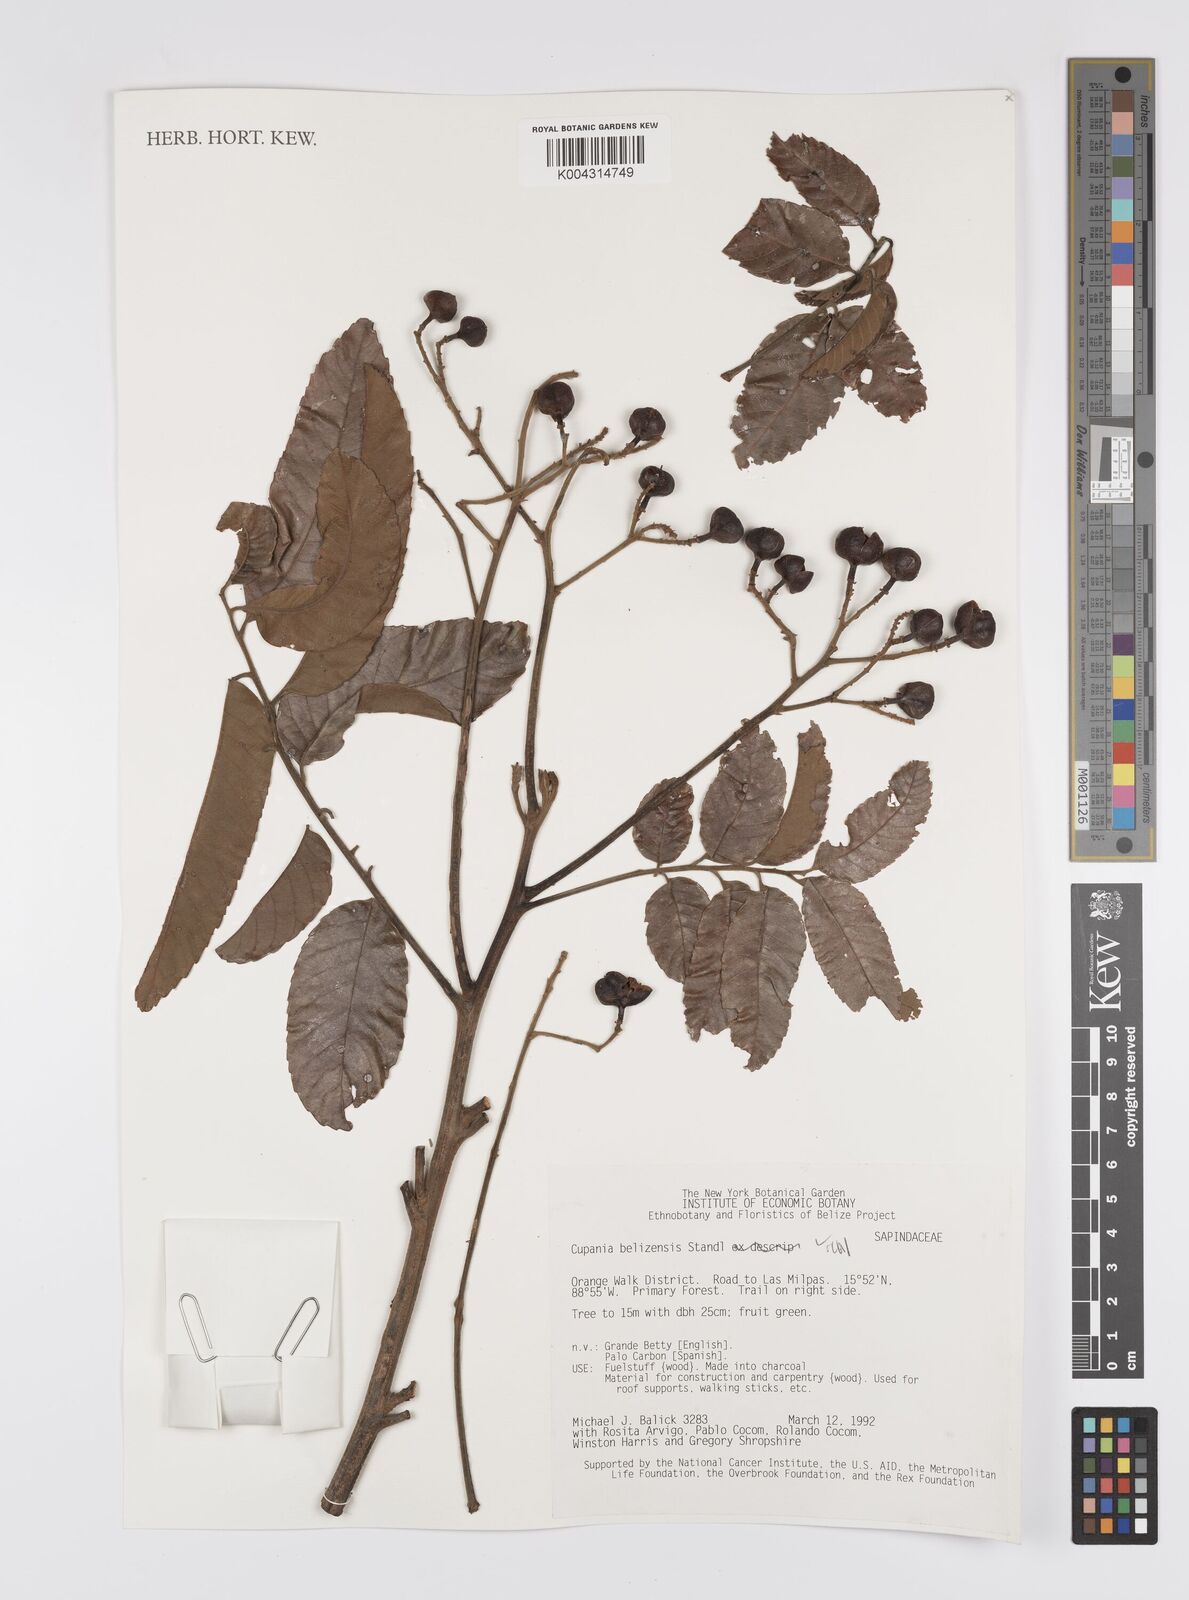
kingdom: Plantae
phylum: Tracheophyta
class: Magnoliopsida
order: Sapindales
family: Sapindaceae
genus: Cupania
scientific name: Cupania belizensis
